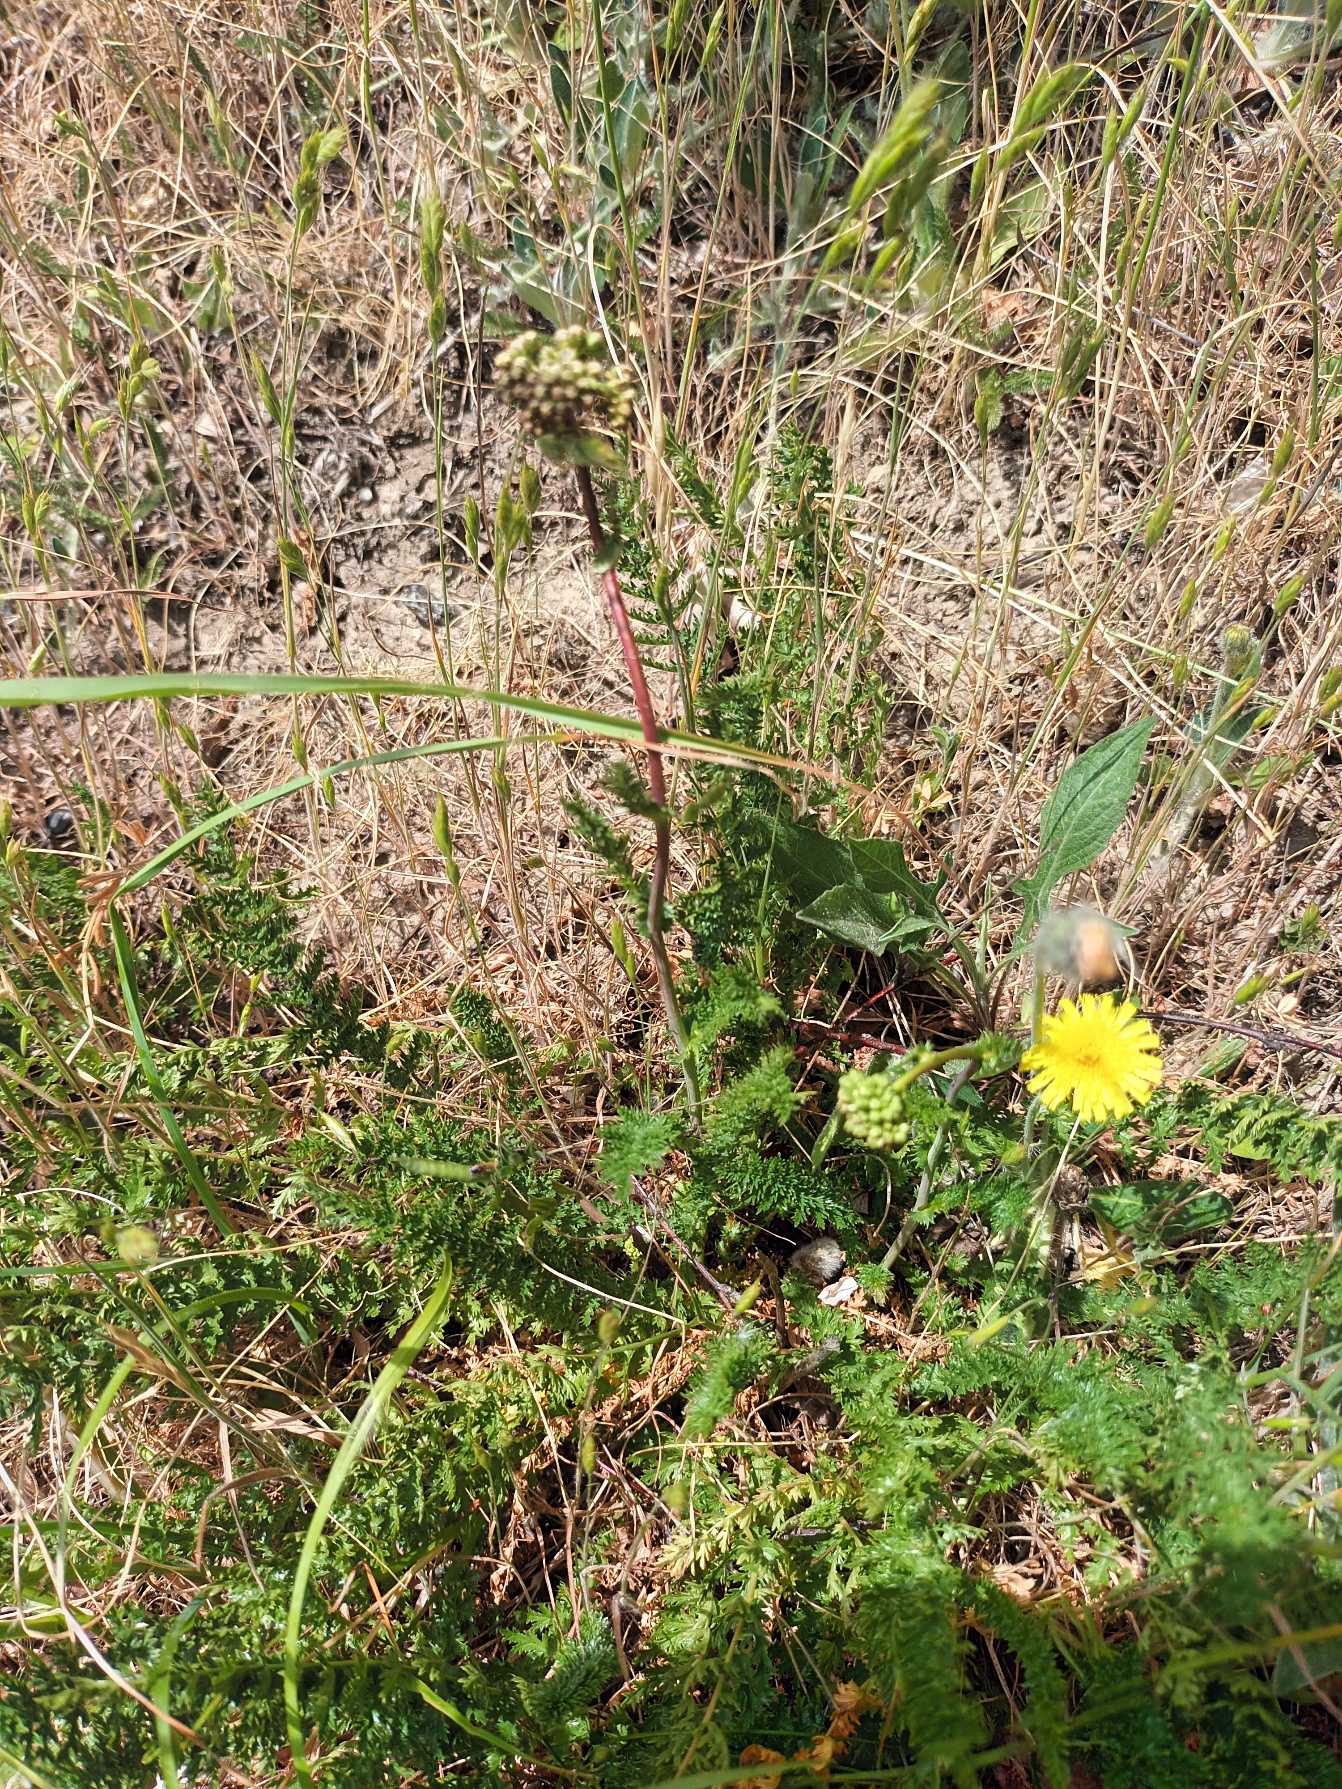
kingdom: Plantae
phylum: Tracheophyta
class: Magnoliopsida
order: Rosales
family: Rosaceae
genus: Filipendula
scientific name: Filipendula vulgaris
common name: Knoldet mjødurt
